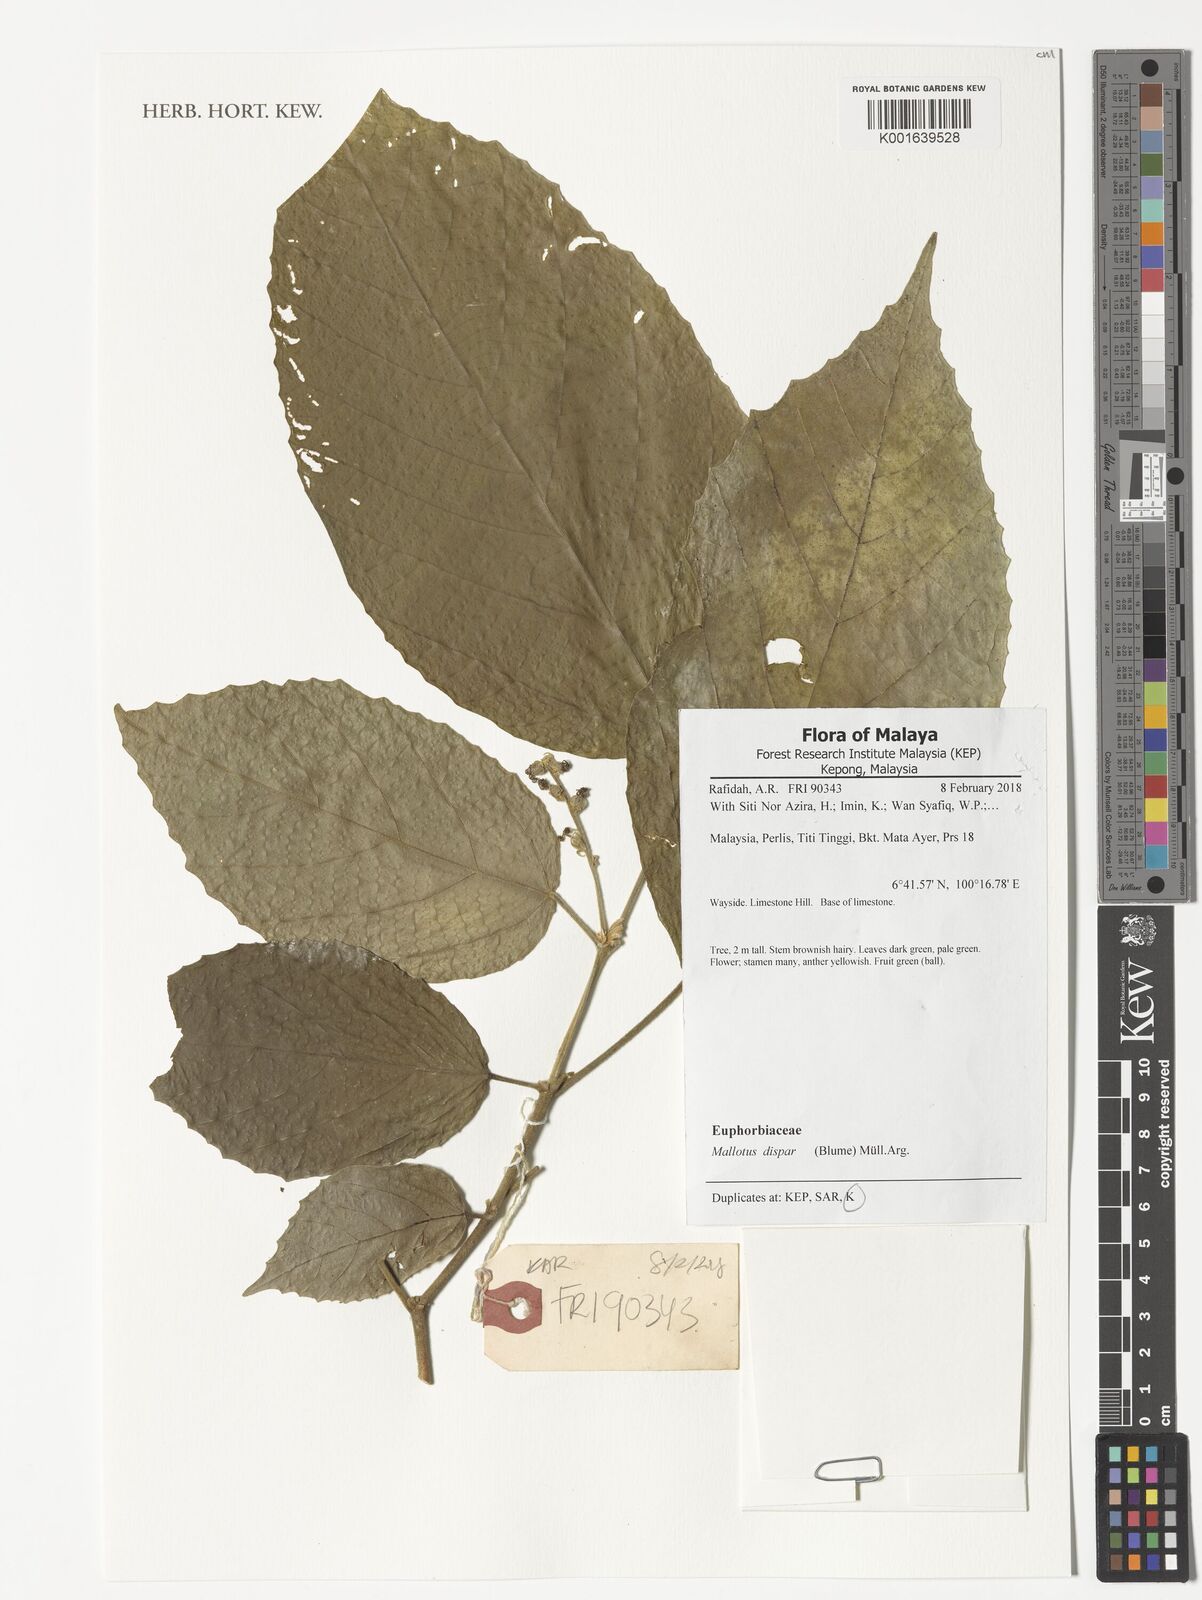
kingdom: Plantae
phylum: Tracheophyta
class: Magnoliopsida
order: Malpighiales
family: Euphorbiaceae
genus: Mallotus
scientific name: Mallotus dispar
